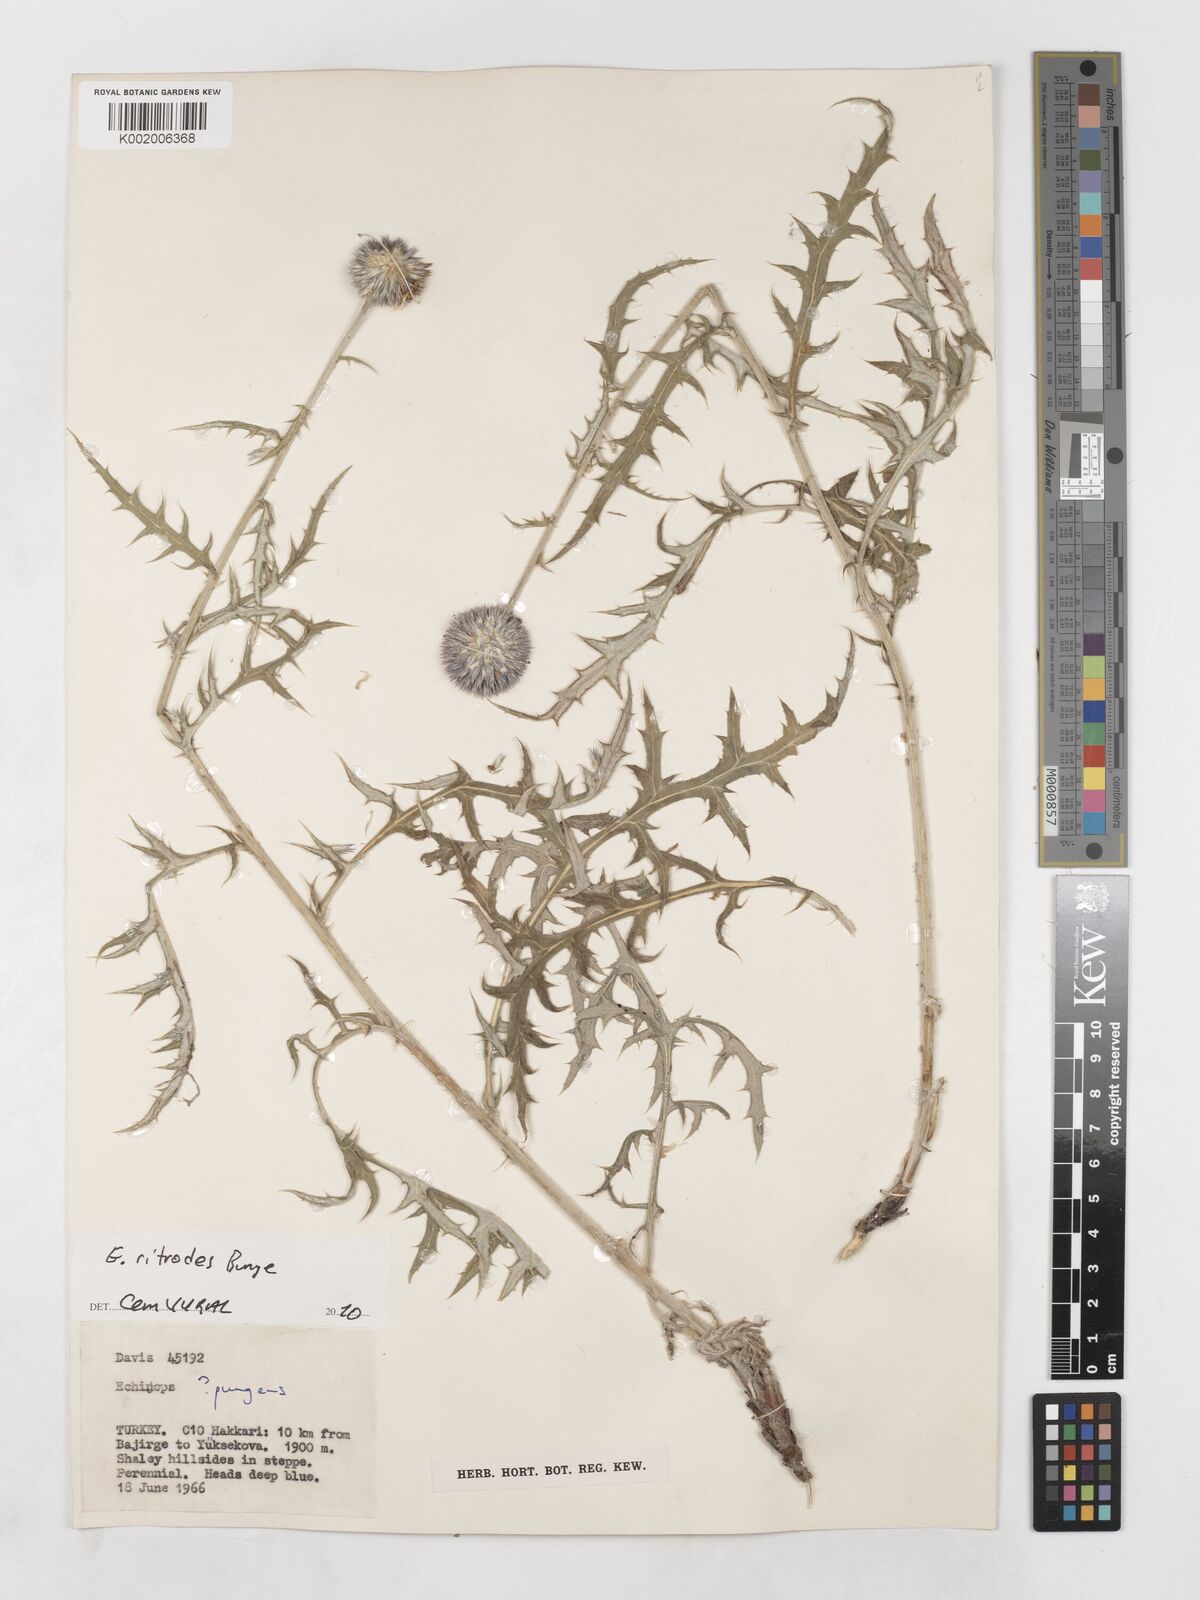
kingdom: Plantae
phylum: Tracheophyta
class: Magnoliopsida
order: Asterales
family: Asteraceae
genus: Echinops
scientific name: Echinops ritrodes
